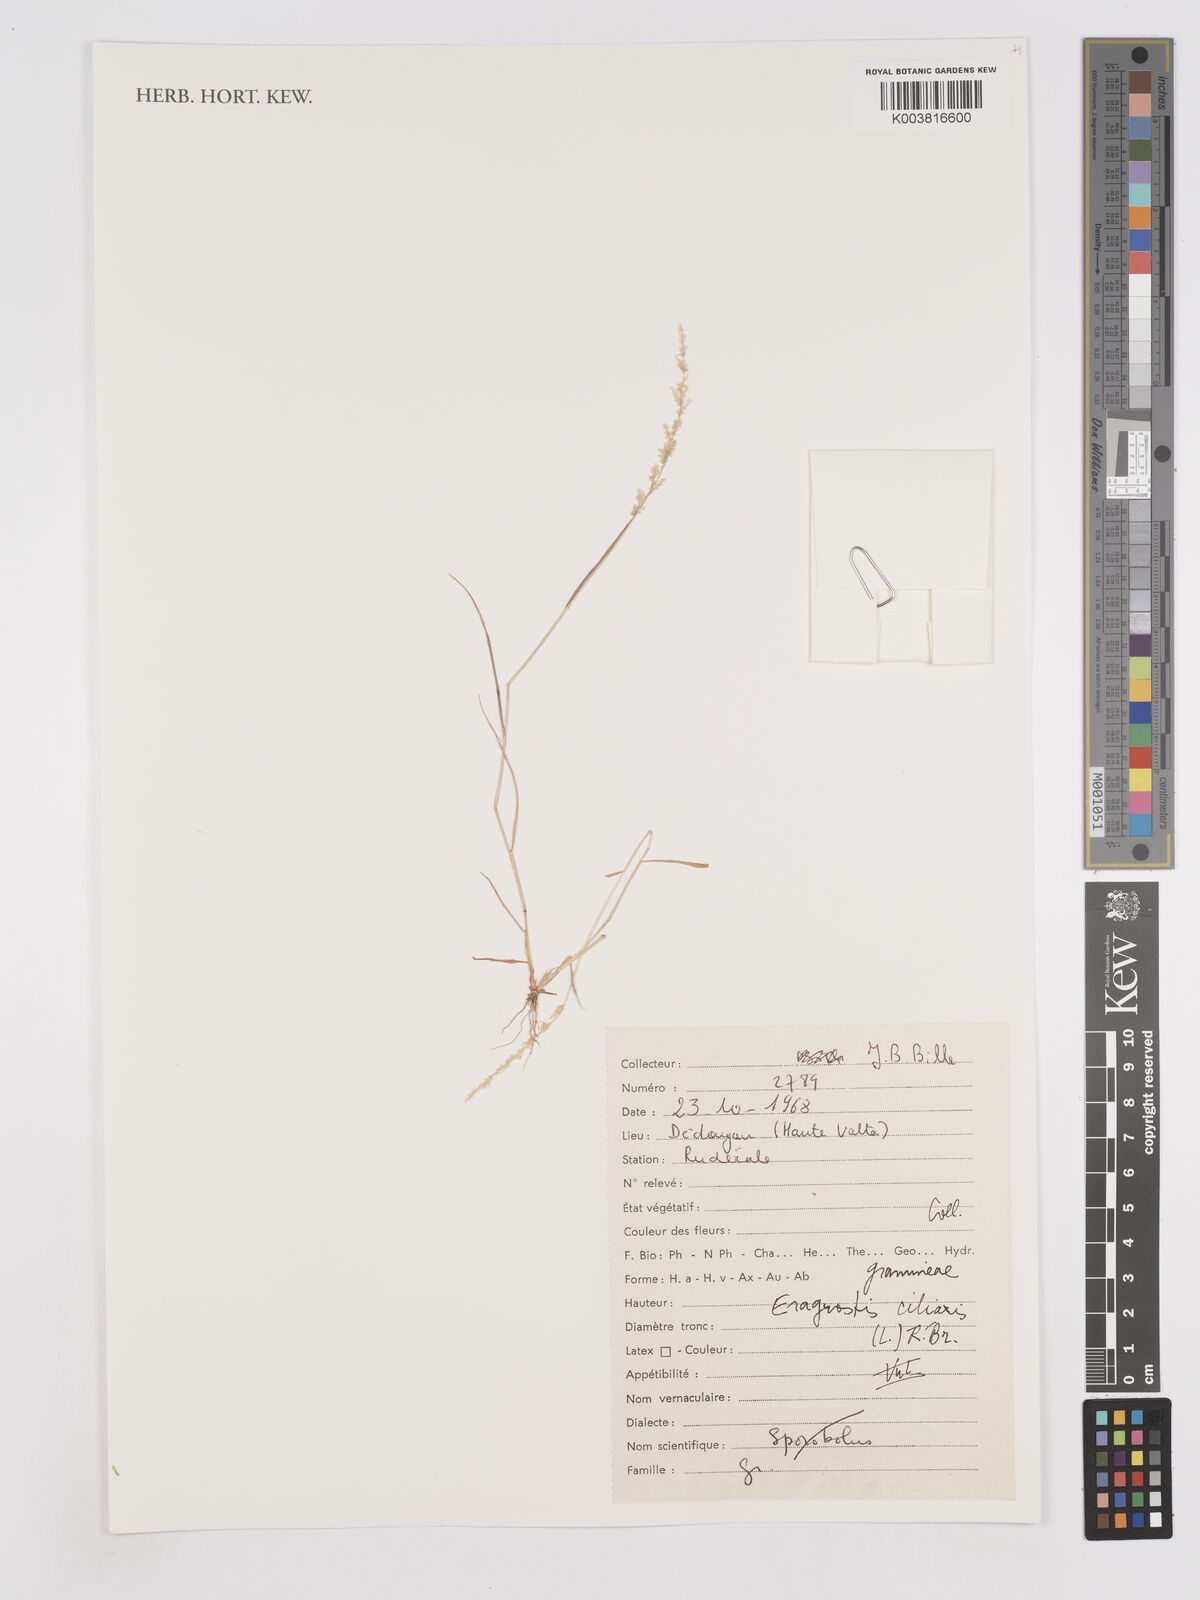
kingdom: Plantae
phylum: Tracheophyta
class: Liliopsida
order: Poales
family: Poaceae
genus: Eragrostis
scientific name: Eragrostis ciliaris
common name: Gophertail lovegrass
